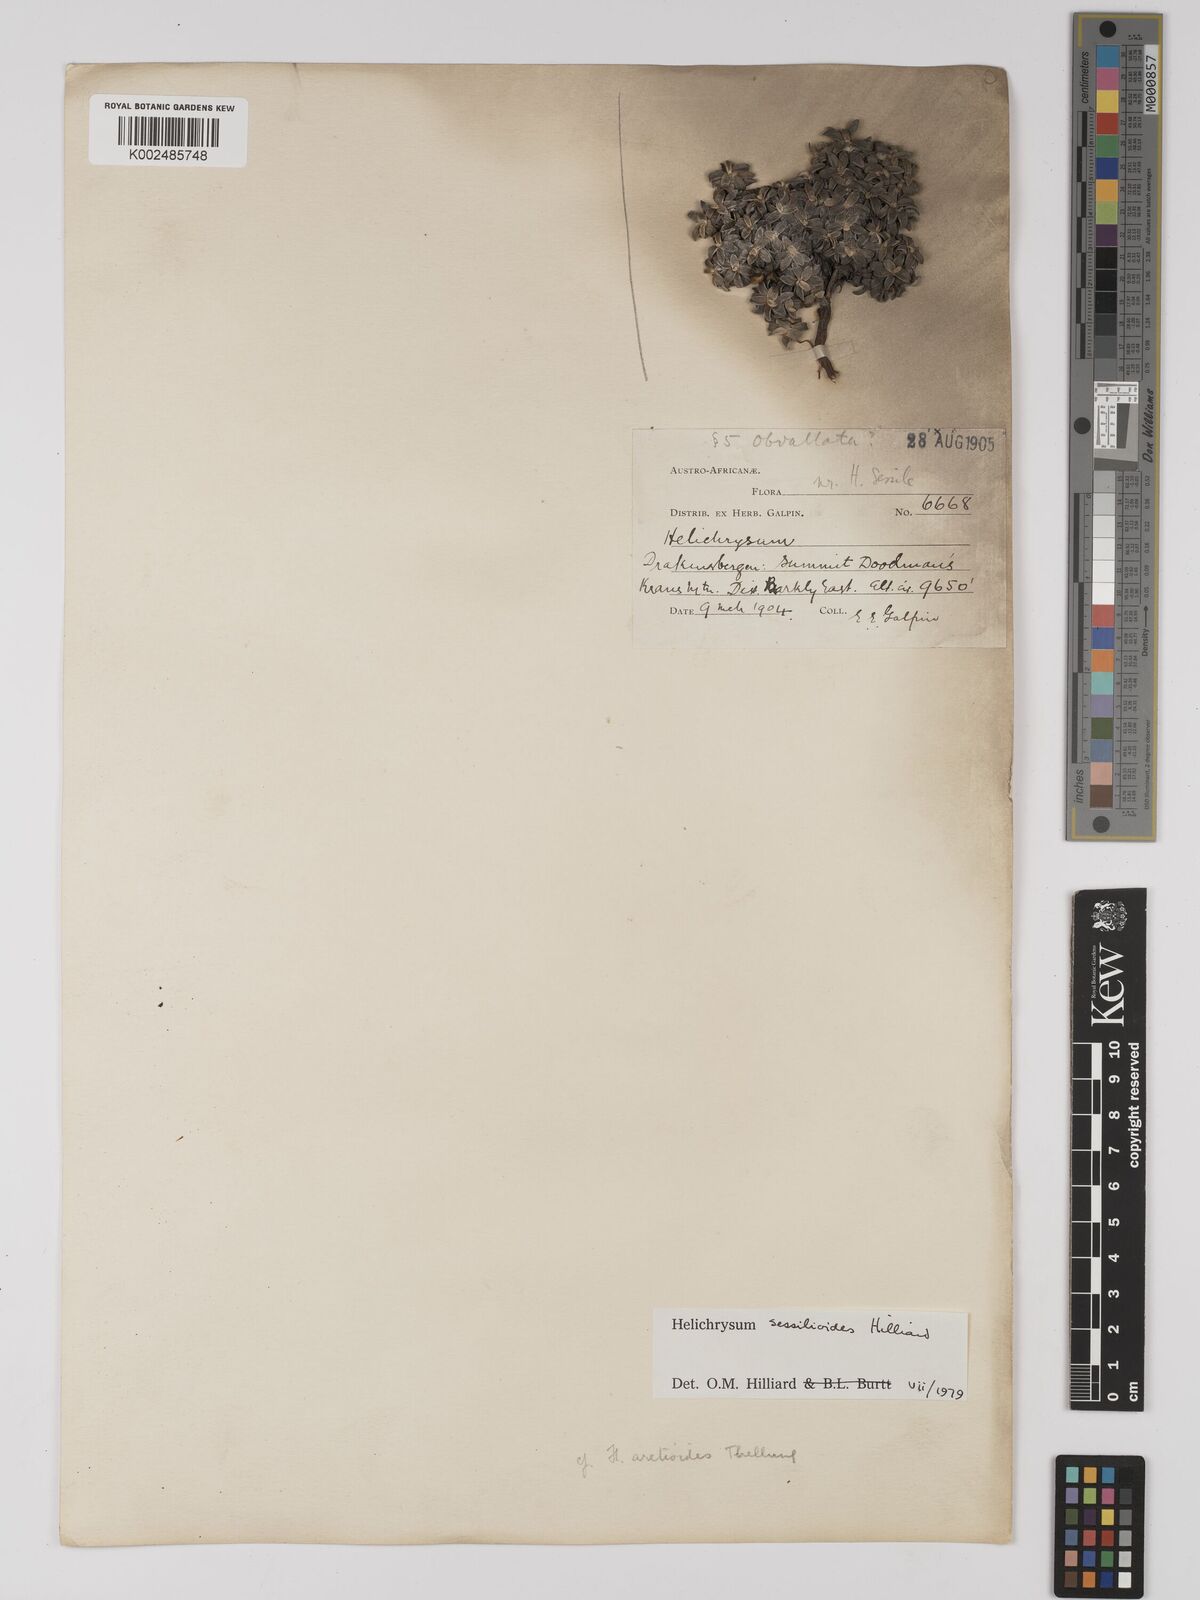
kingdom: Plantae
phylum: Tracheophyta
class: Magnoliopsida
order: Asterales
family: Asteraceae
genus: Helichrysum
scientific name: Helichrysum sessilioides
